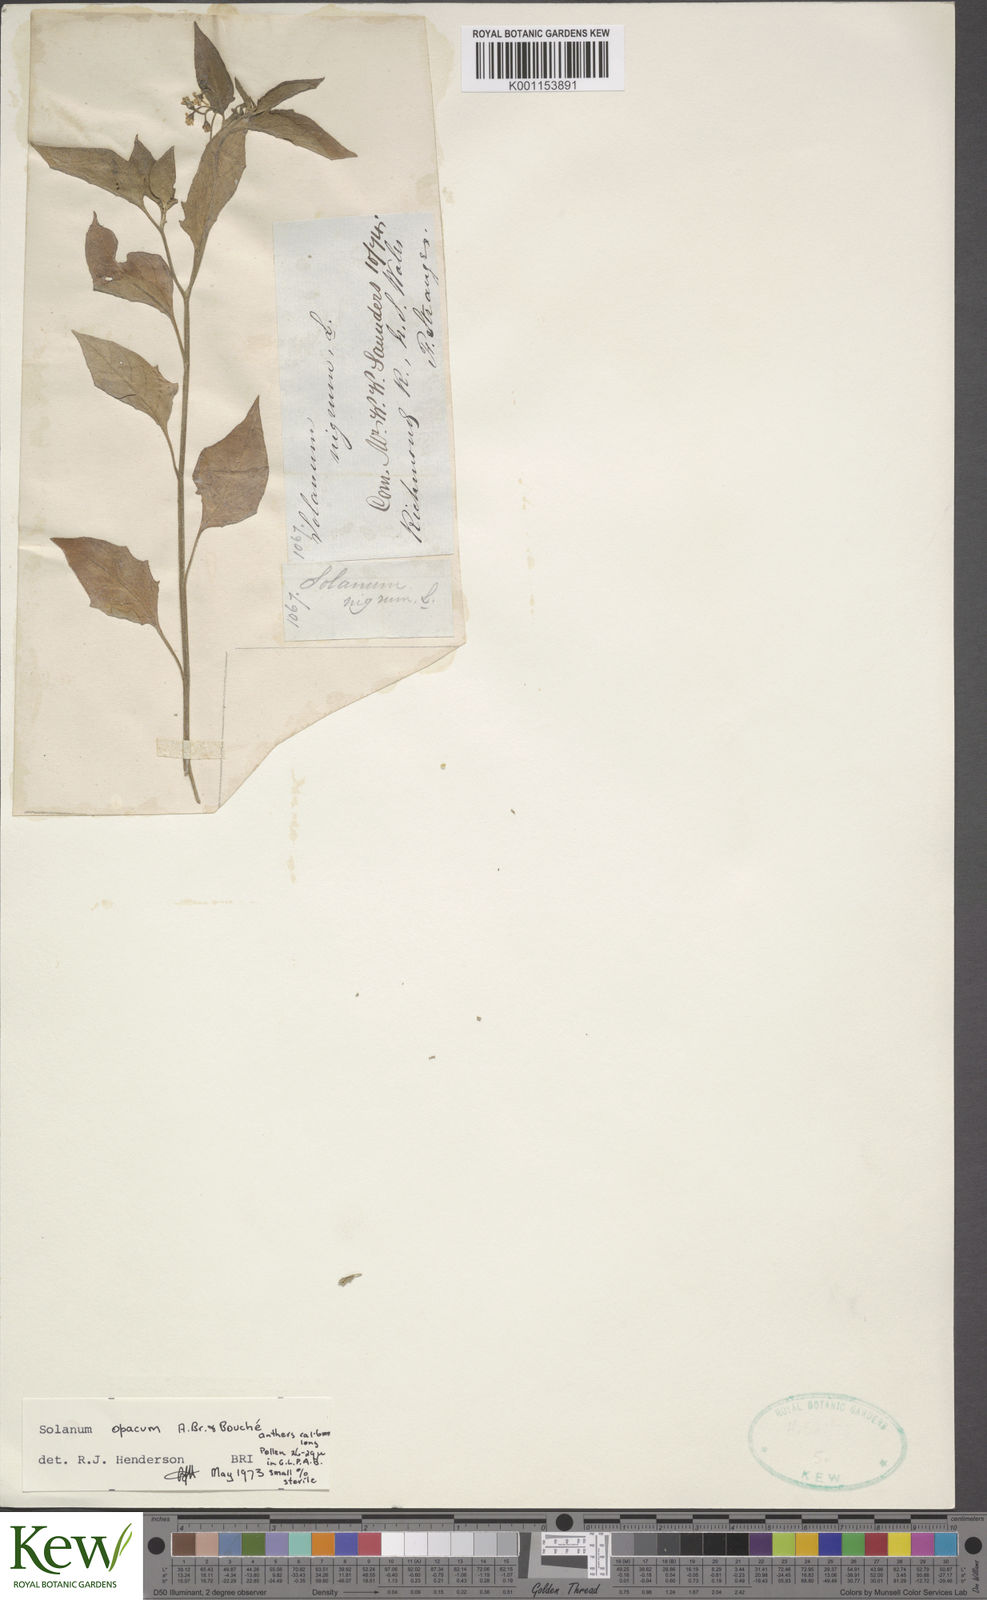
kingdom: Plantae
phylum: Tracheophyta
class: Magnoliopsida
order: Solanales
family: Solanaceae
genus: Solanum
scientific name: Solanum
